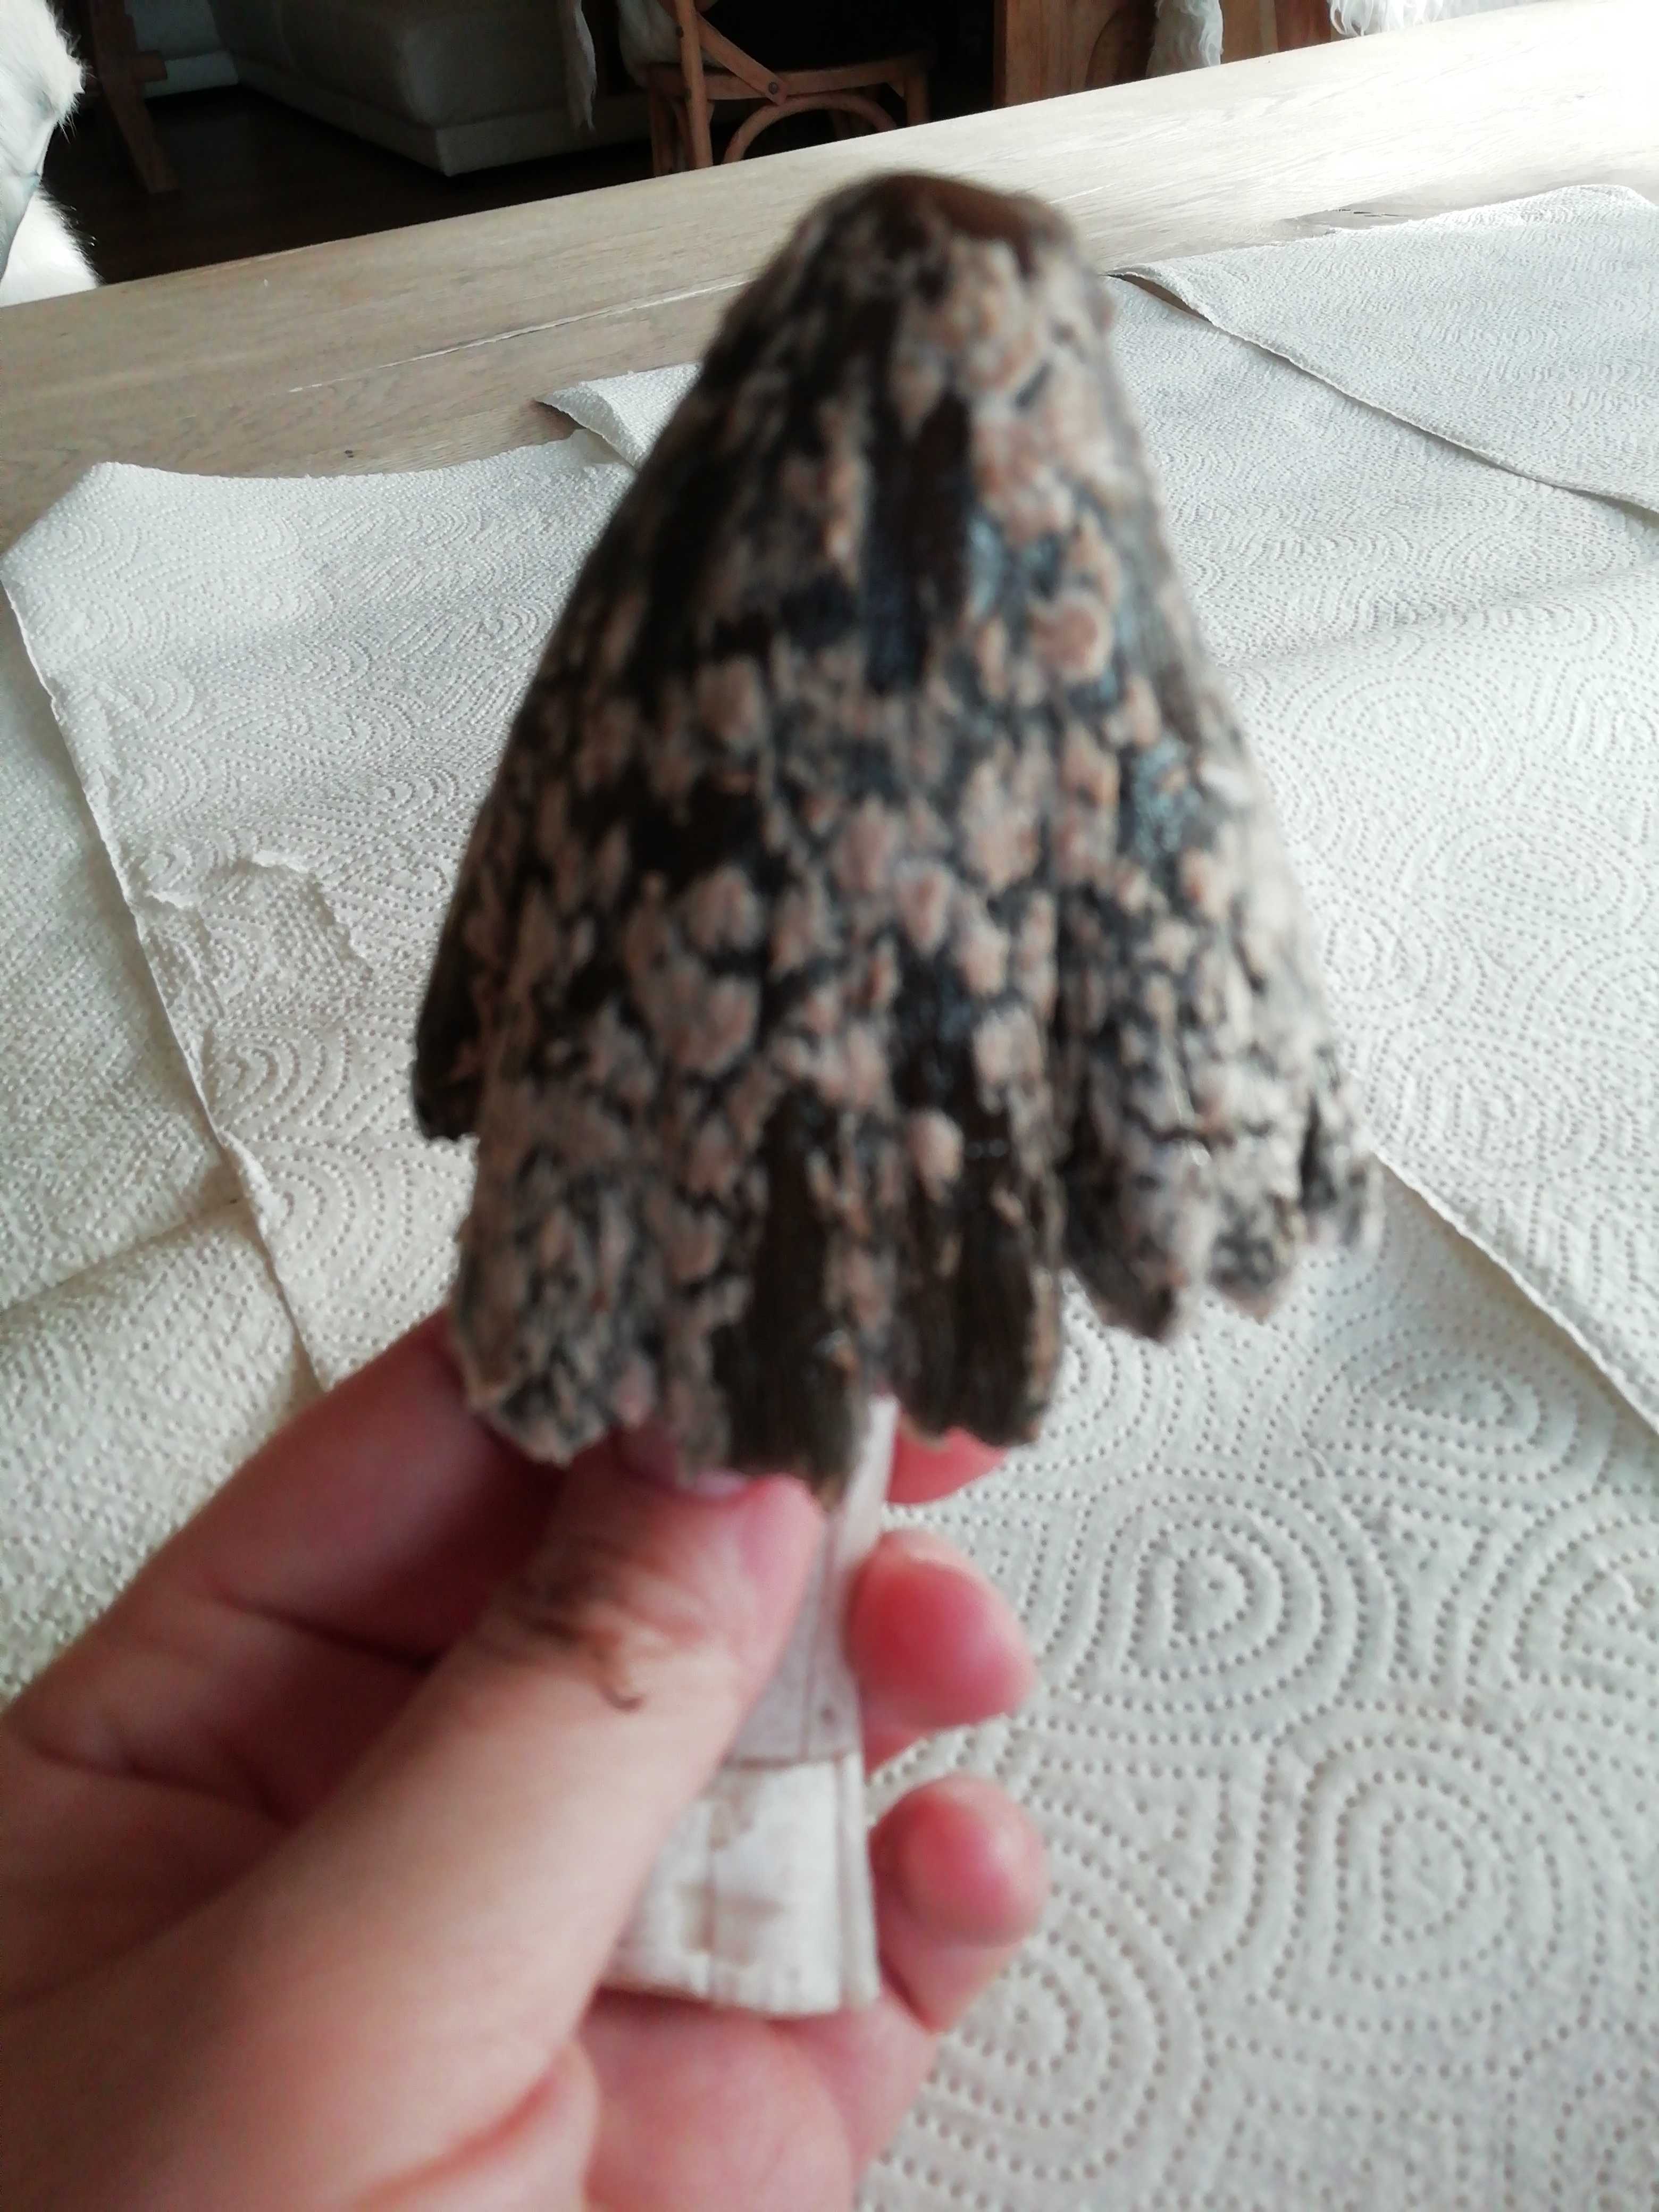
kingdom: Fungi
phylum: Basidiomycota
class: Agaricomycetes
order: Agaricales
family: Psathyrellaceae
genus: Coprinopsis
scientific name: Coprinopsis picacea
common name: skade-blækhat
